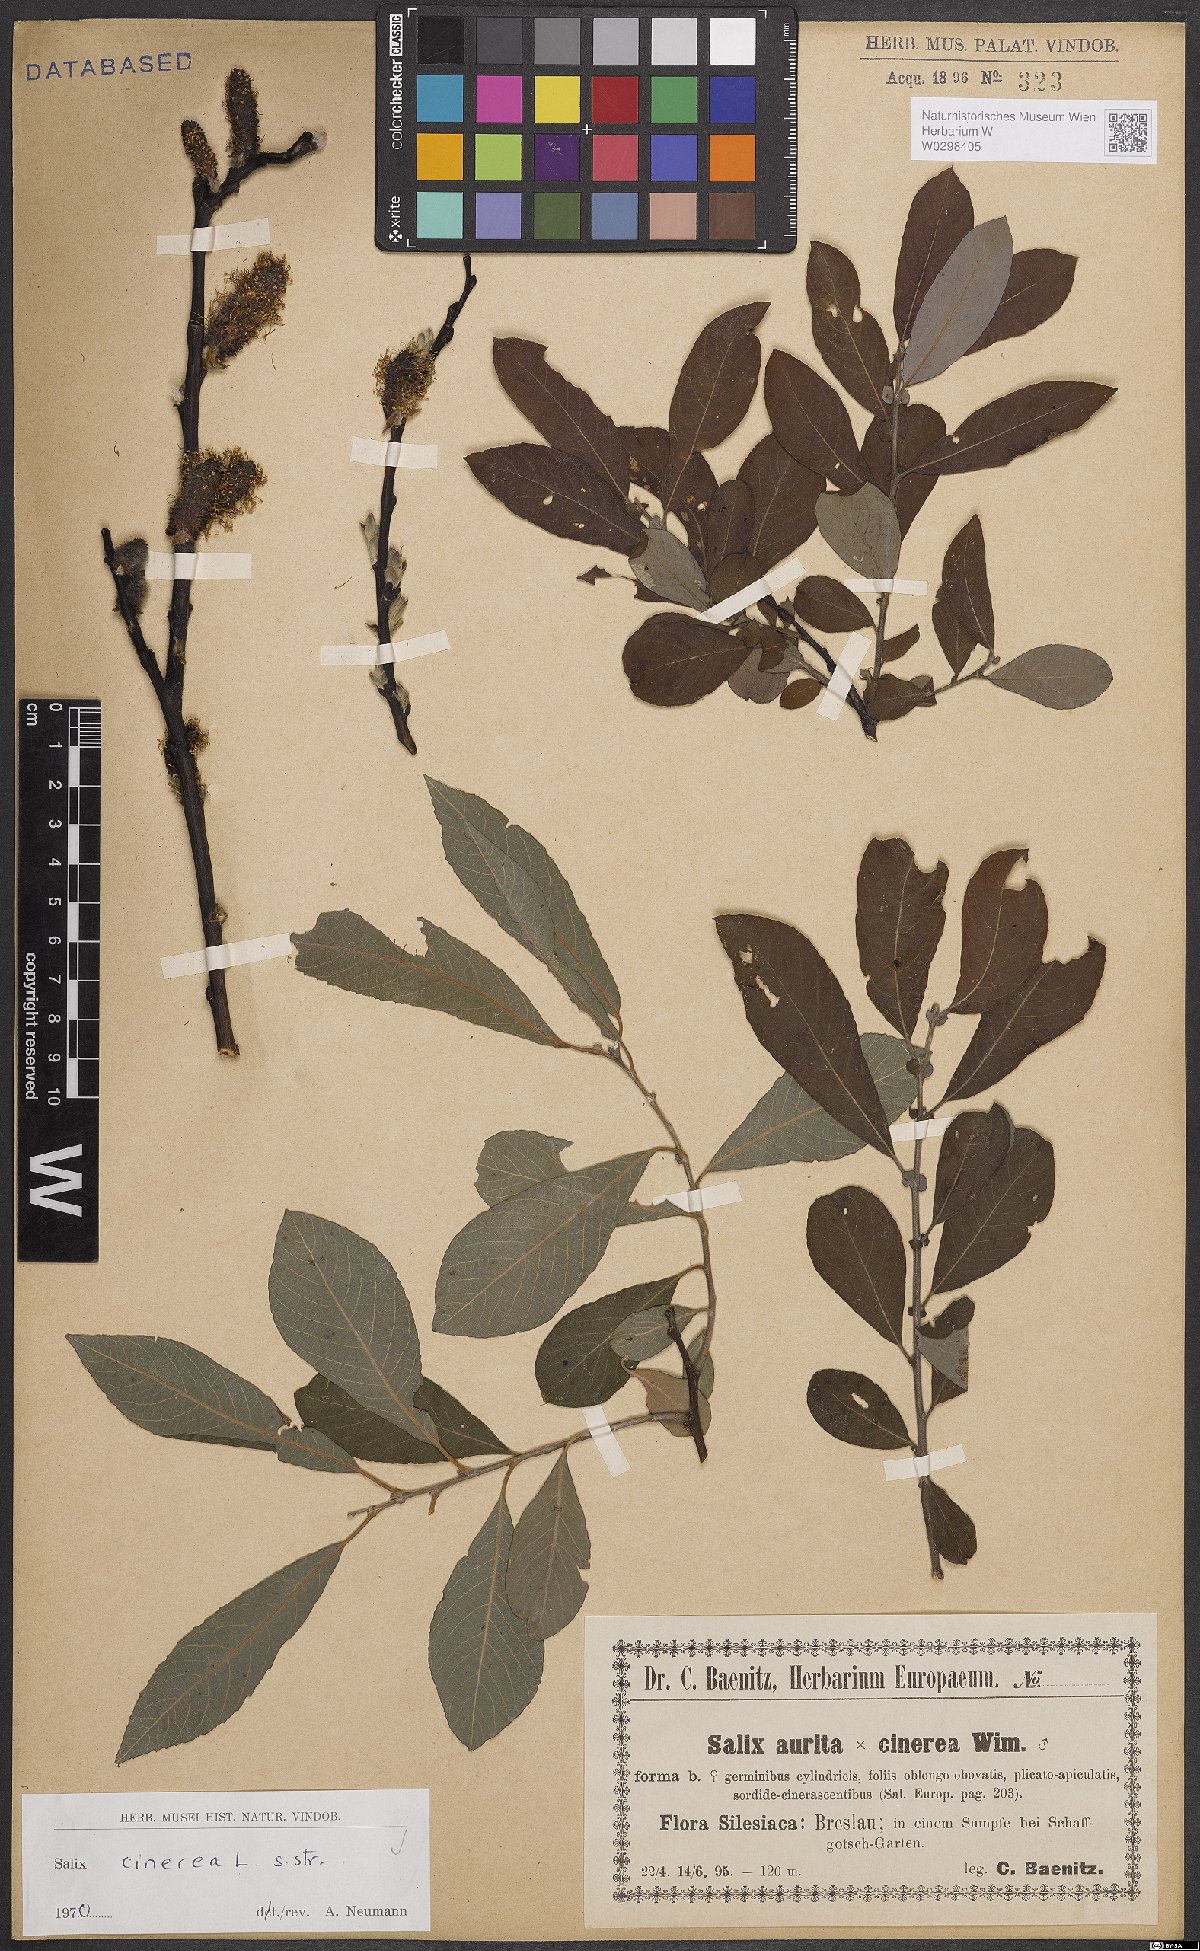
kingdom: Plantae
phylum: Tracheophyta
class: Magnoliopsida
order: Malpighiales
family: Salicaceae
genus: Salix
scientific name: Salix cinerea
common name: Common sallow
